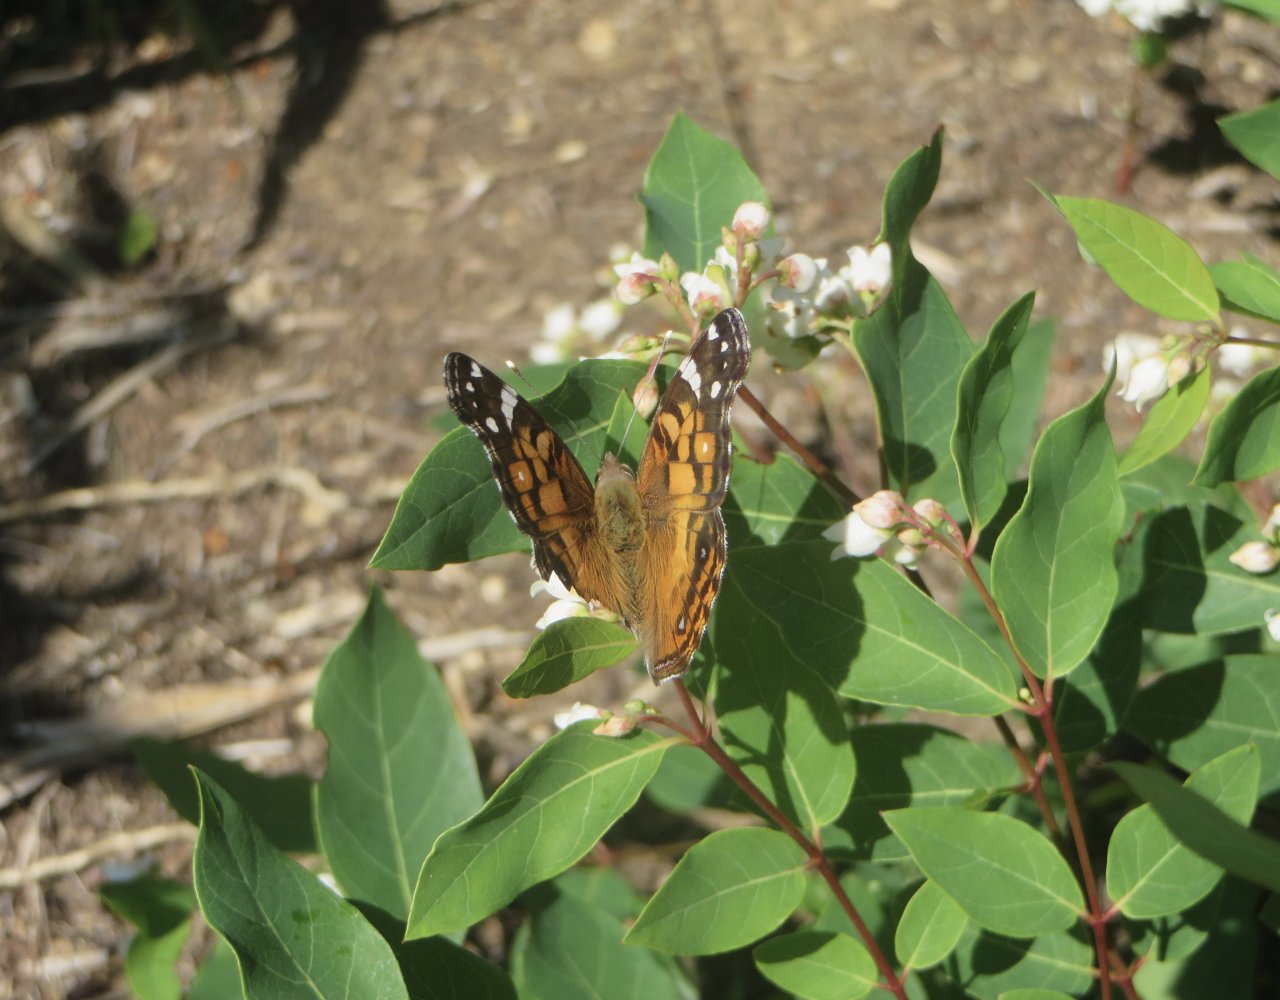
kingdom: Animalia
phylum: Arthropoda
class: Insecta
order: Lepidoptera
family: Nymphalidae
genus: Vanessa
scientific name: Vanessa virginiensis
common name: American Lady
